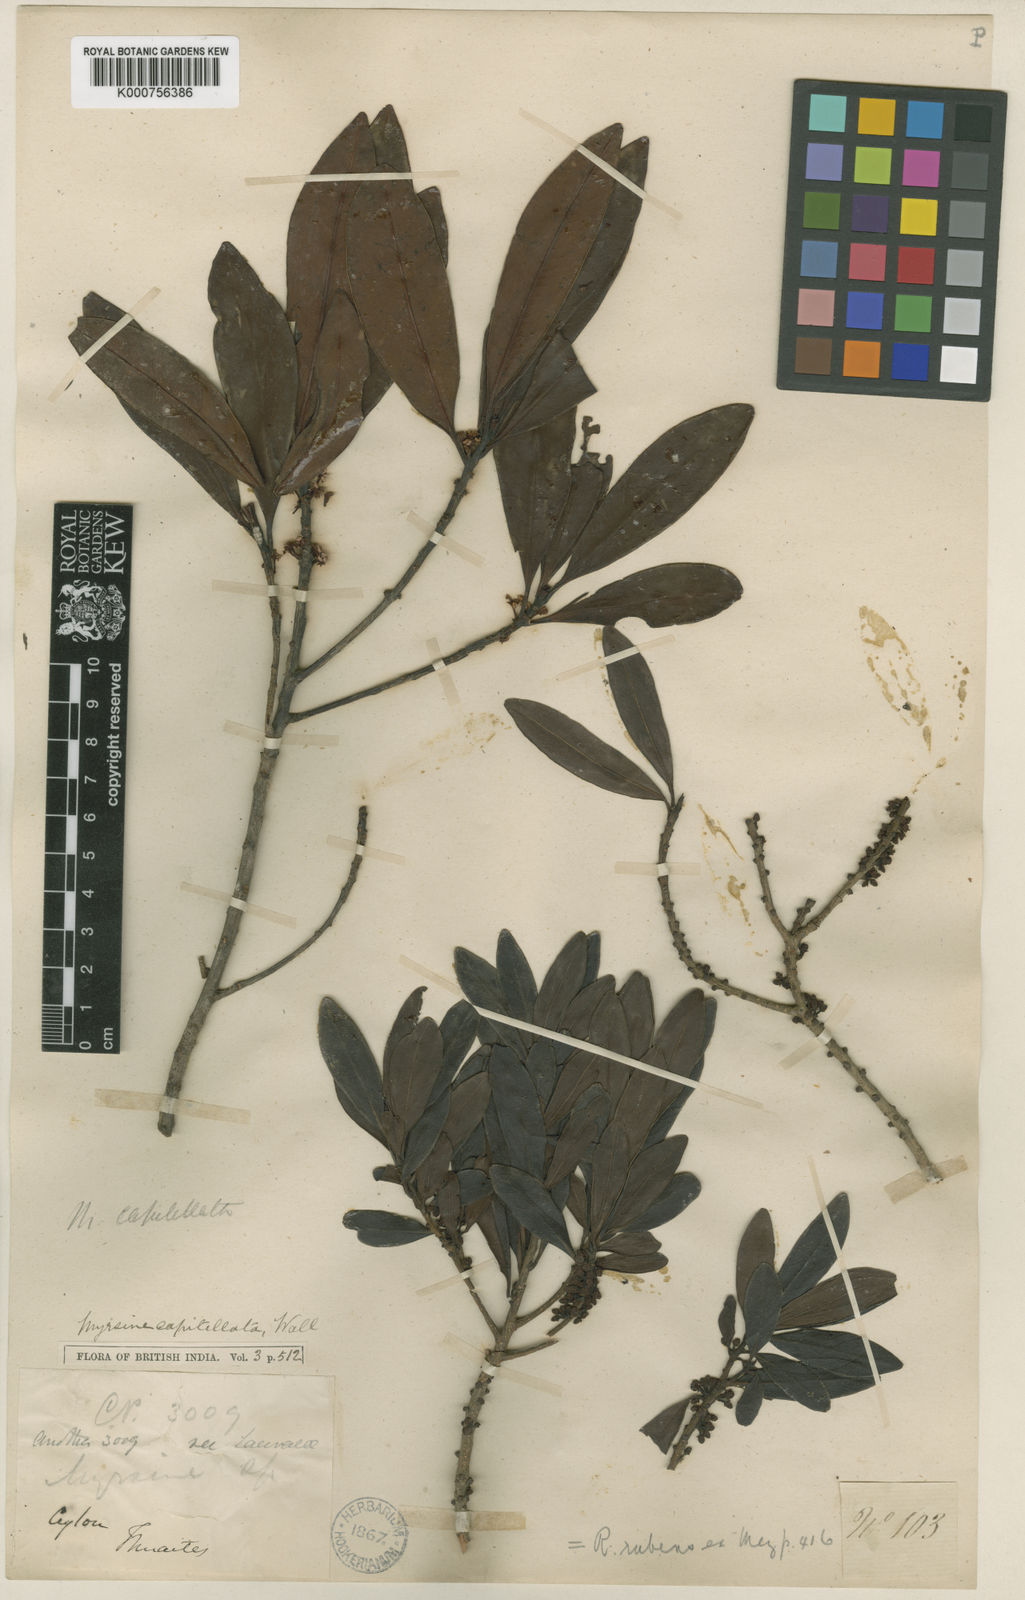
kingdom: Plantae
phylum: Tracheophyta
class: Magnoliopsida
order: Ericales
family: Primulaceae
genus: Myrsine
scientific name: Myrsine
